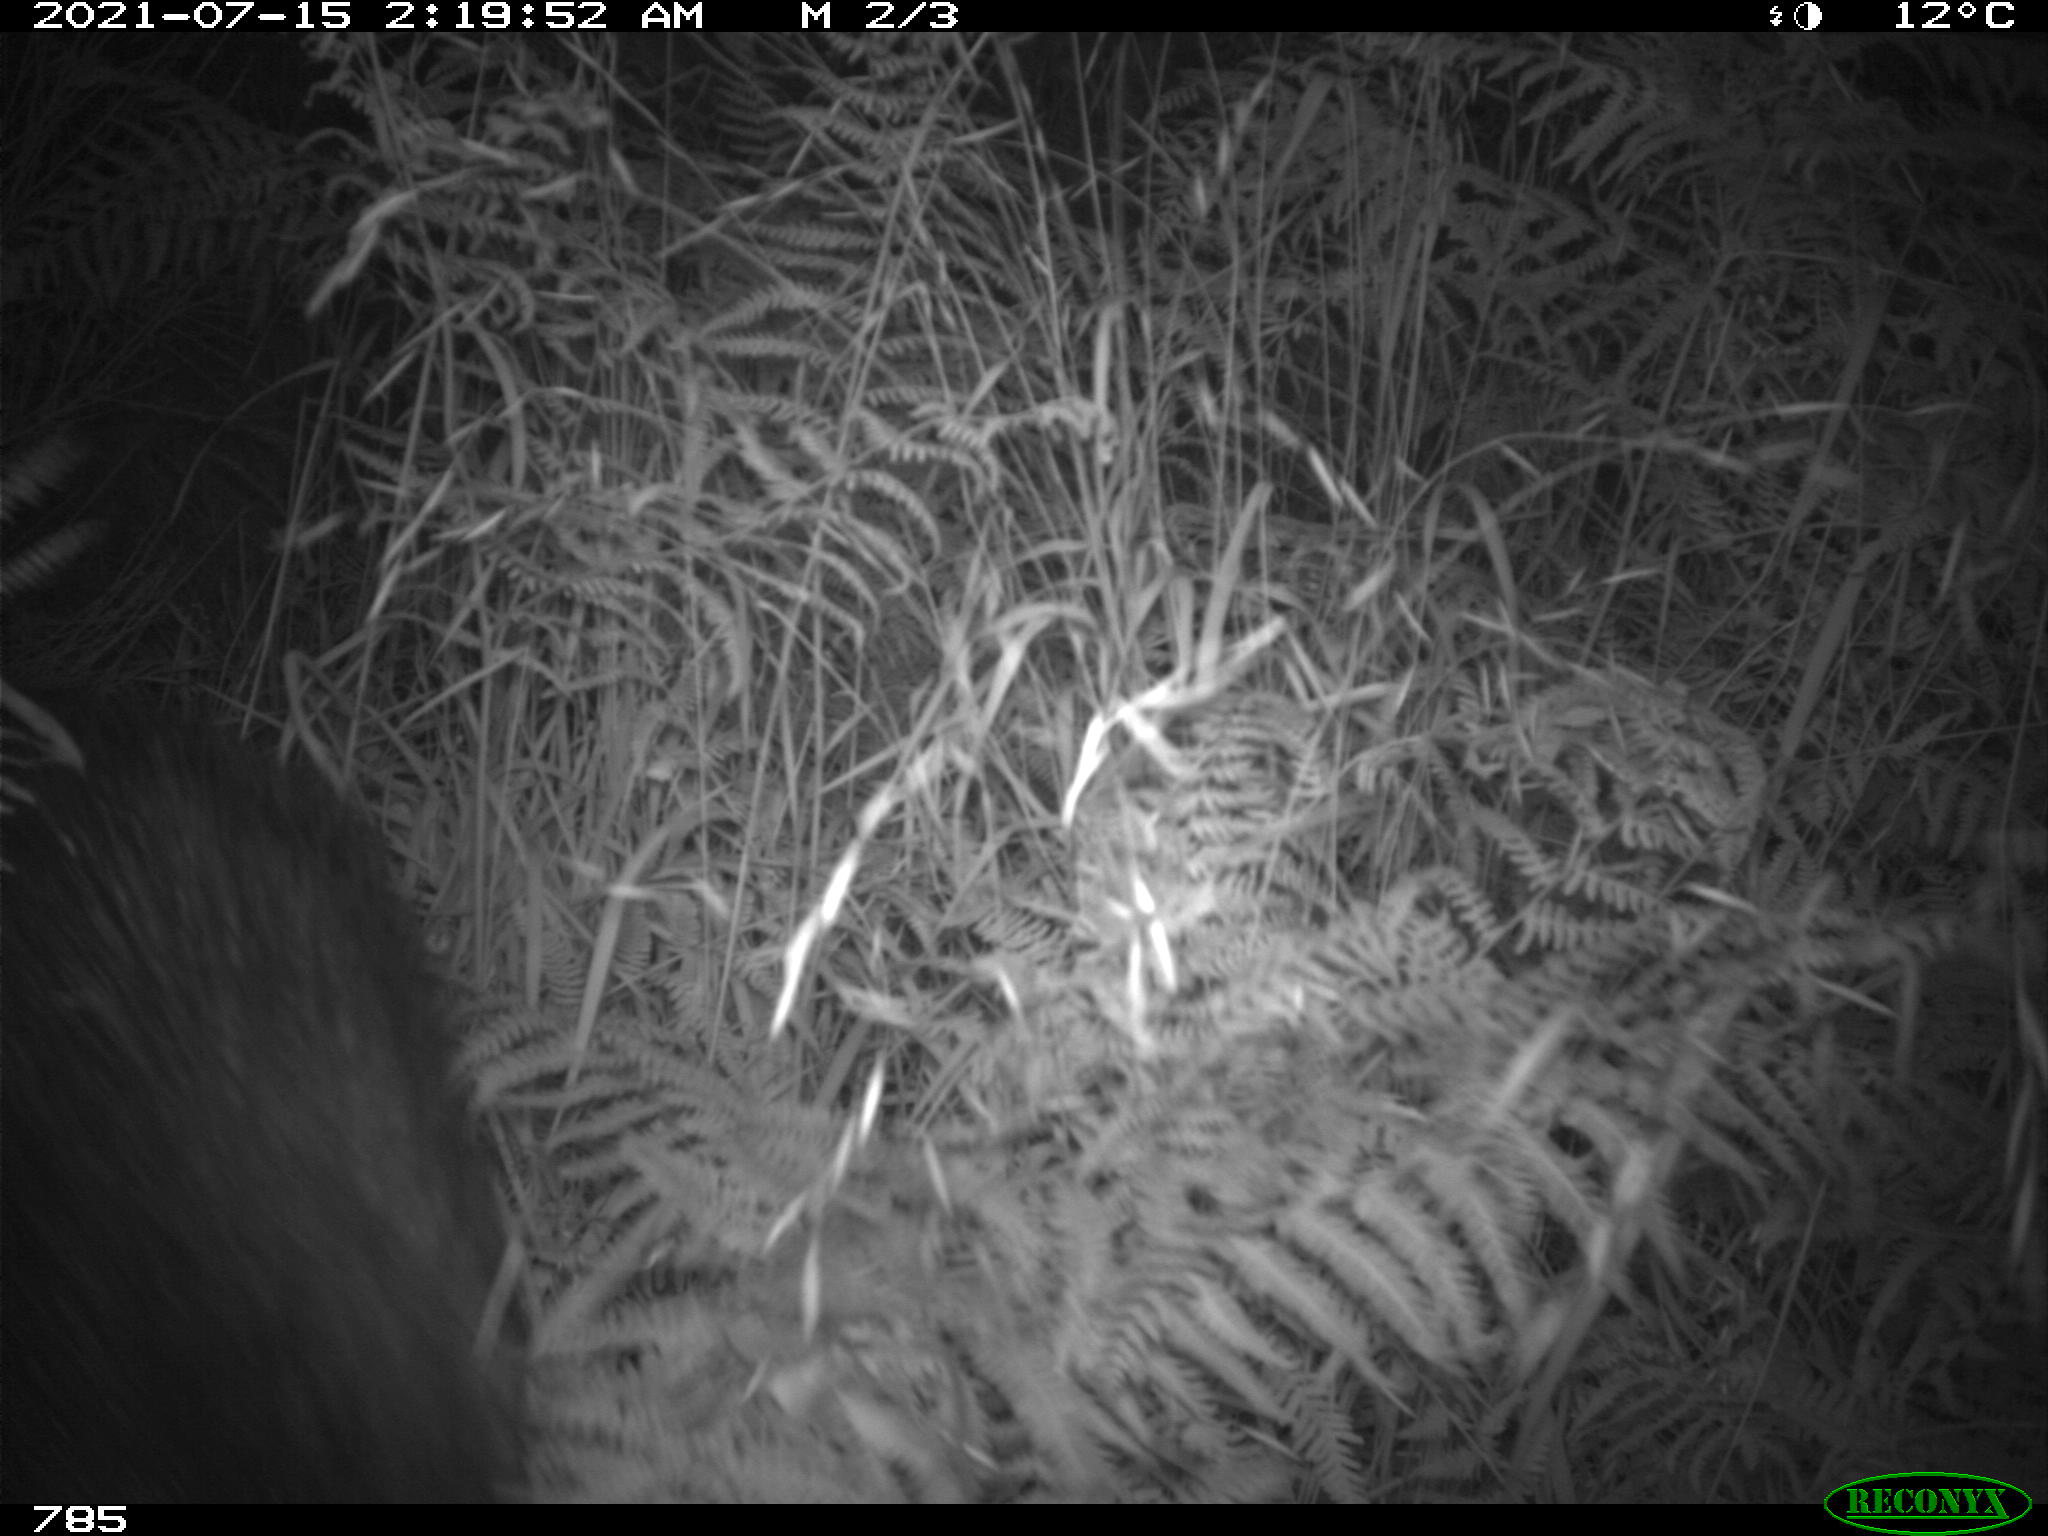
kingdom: Animalia
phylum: Chordata
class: Mammalia
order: Artiodactyla
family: Suidae
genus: Sus
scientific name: Sus scrofa
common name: Wild boar
